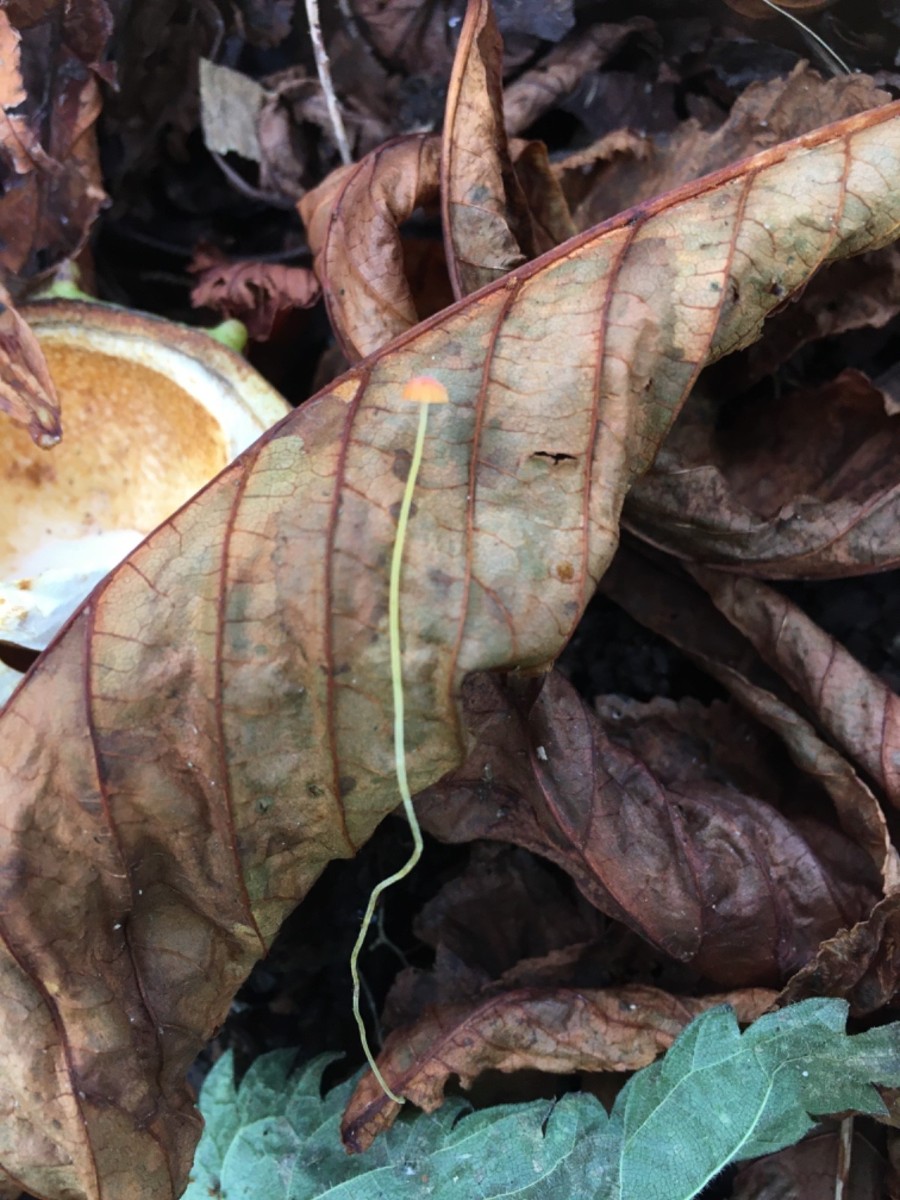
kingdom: Fungi
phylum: Basidiomycota
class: Agaricomycetes
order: Agaricales
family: Mycenaceae
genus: Mycena
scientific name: Mycena acicula
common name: orange huesvamp
